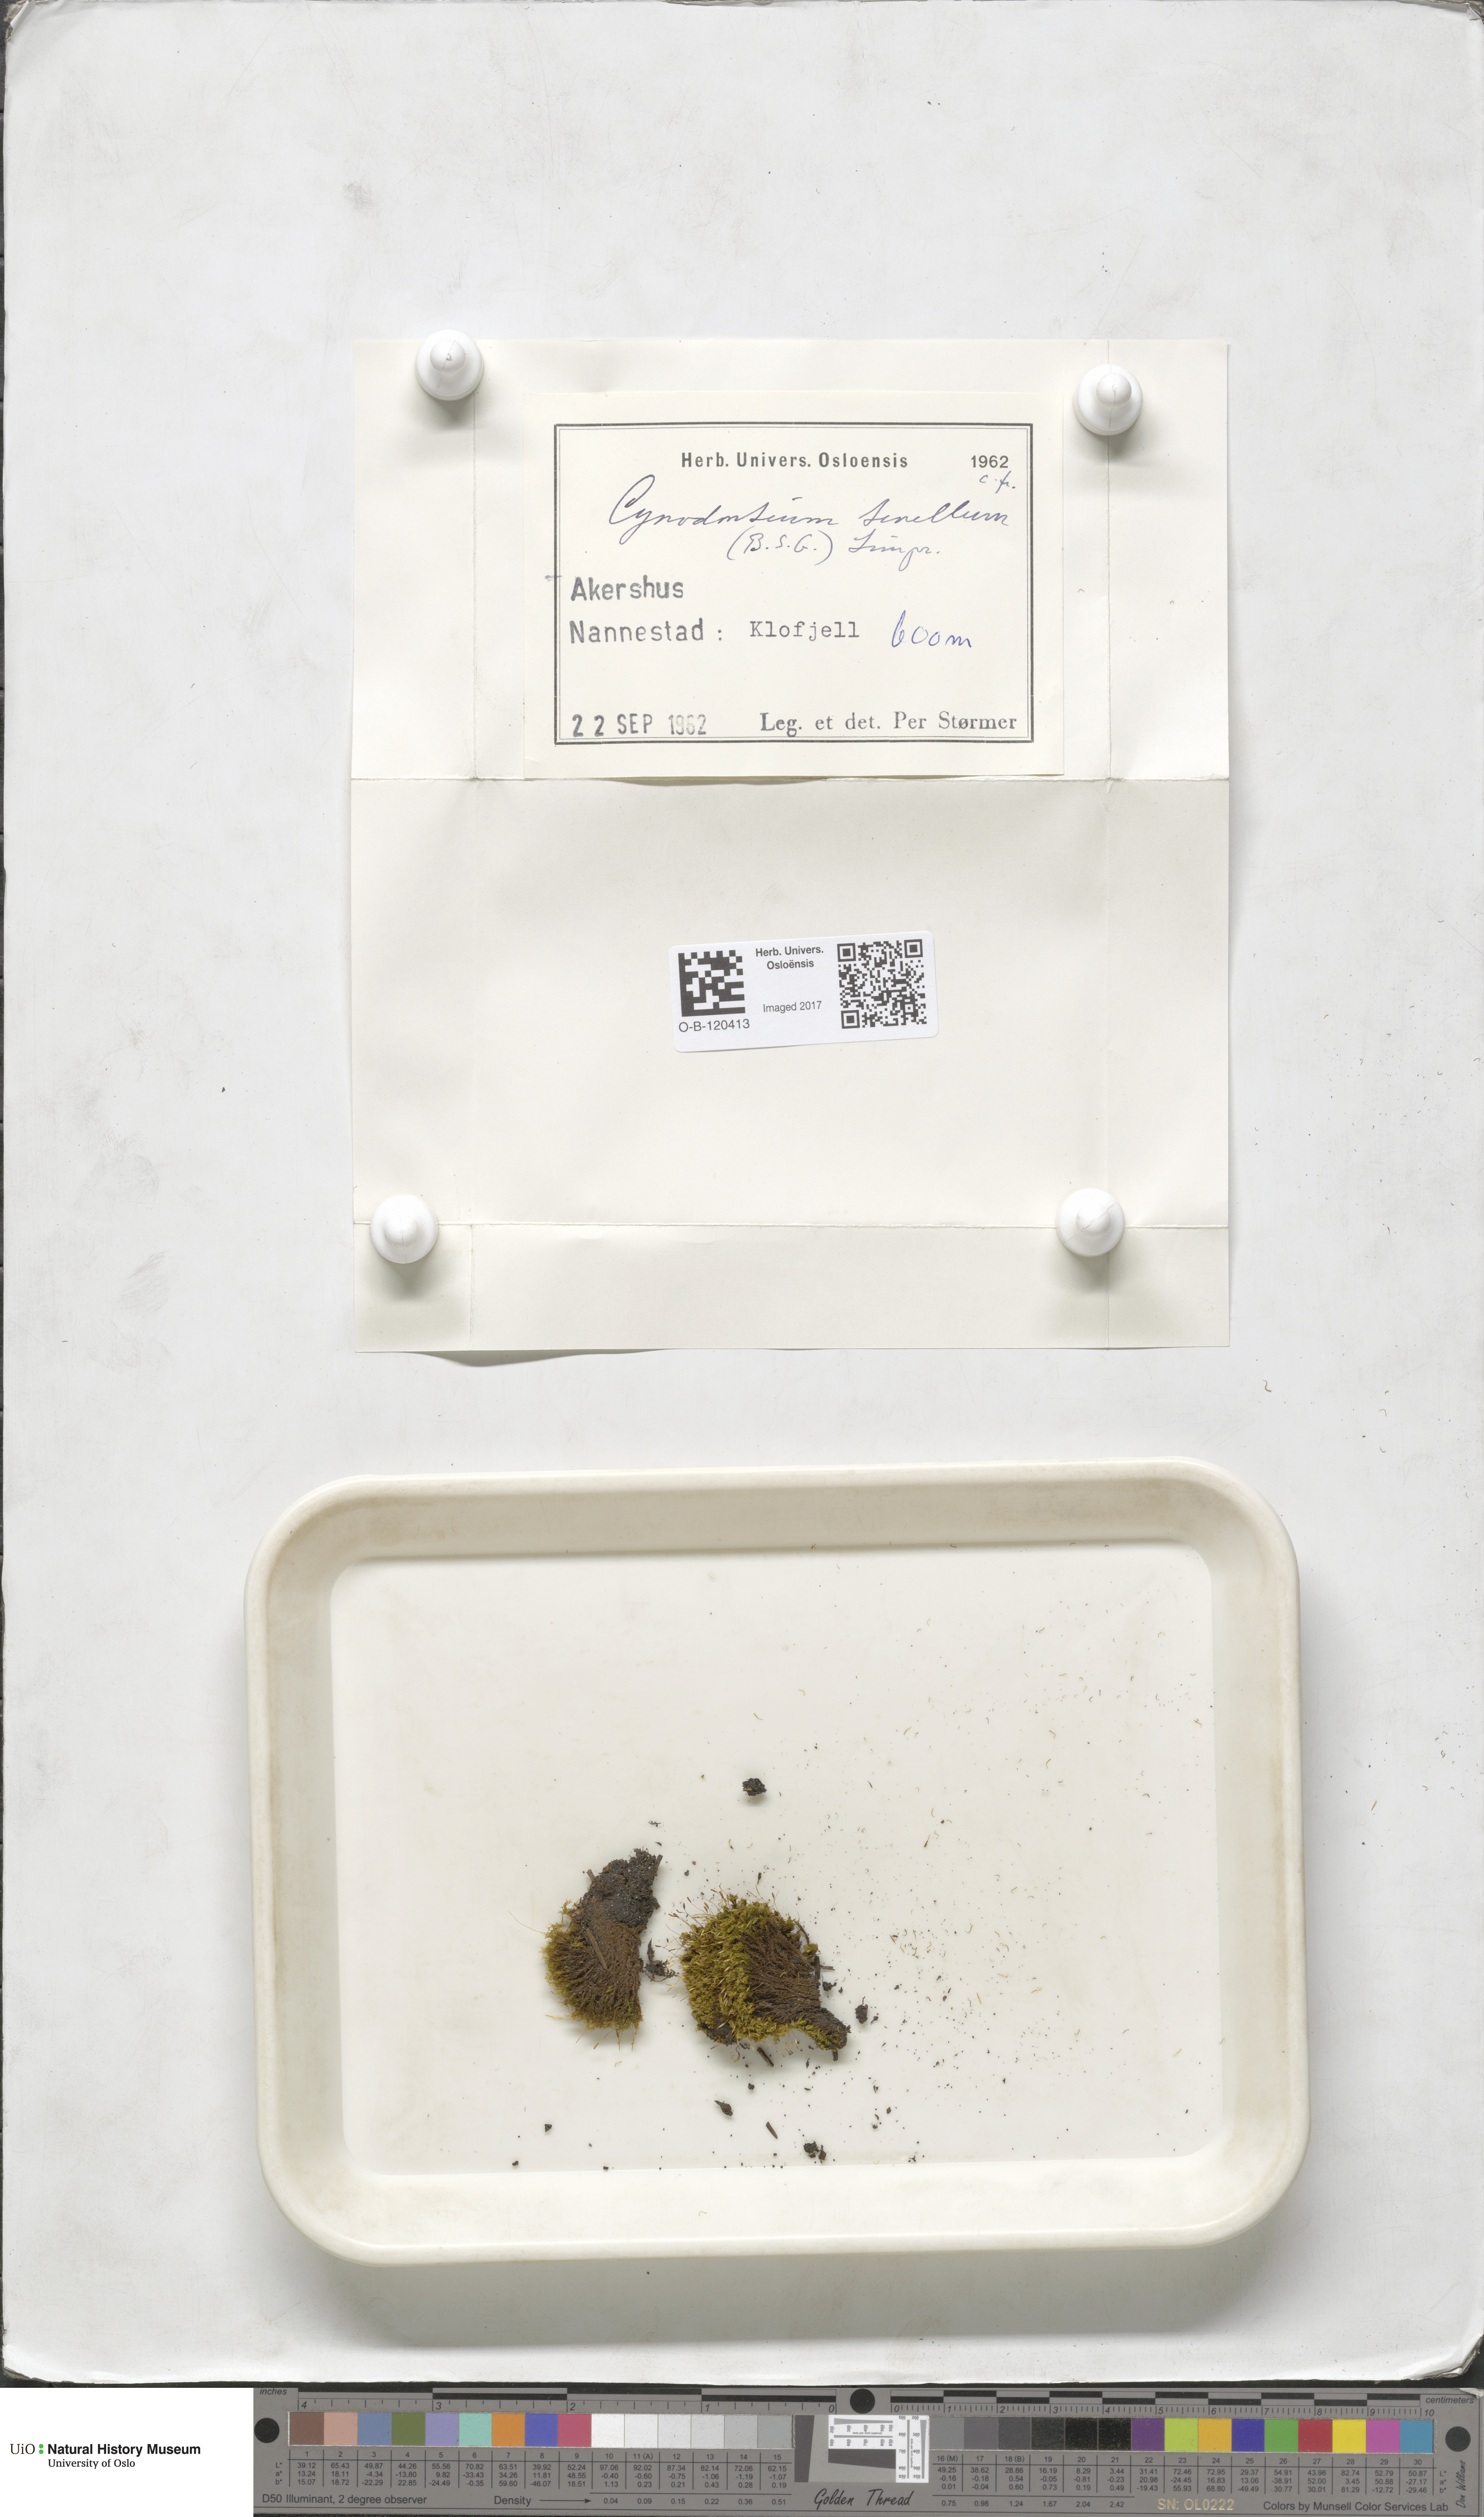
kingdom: Plantae
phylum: Bryophyta
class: Bryopsida
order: Dicranales
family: Rhabdoweisiaceae
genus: Cynodontium
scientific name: Cynodontium tenellum
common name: Delicate dogtooth moss
